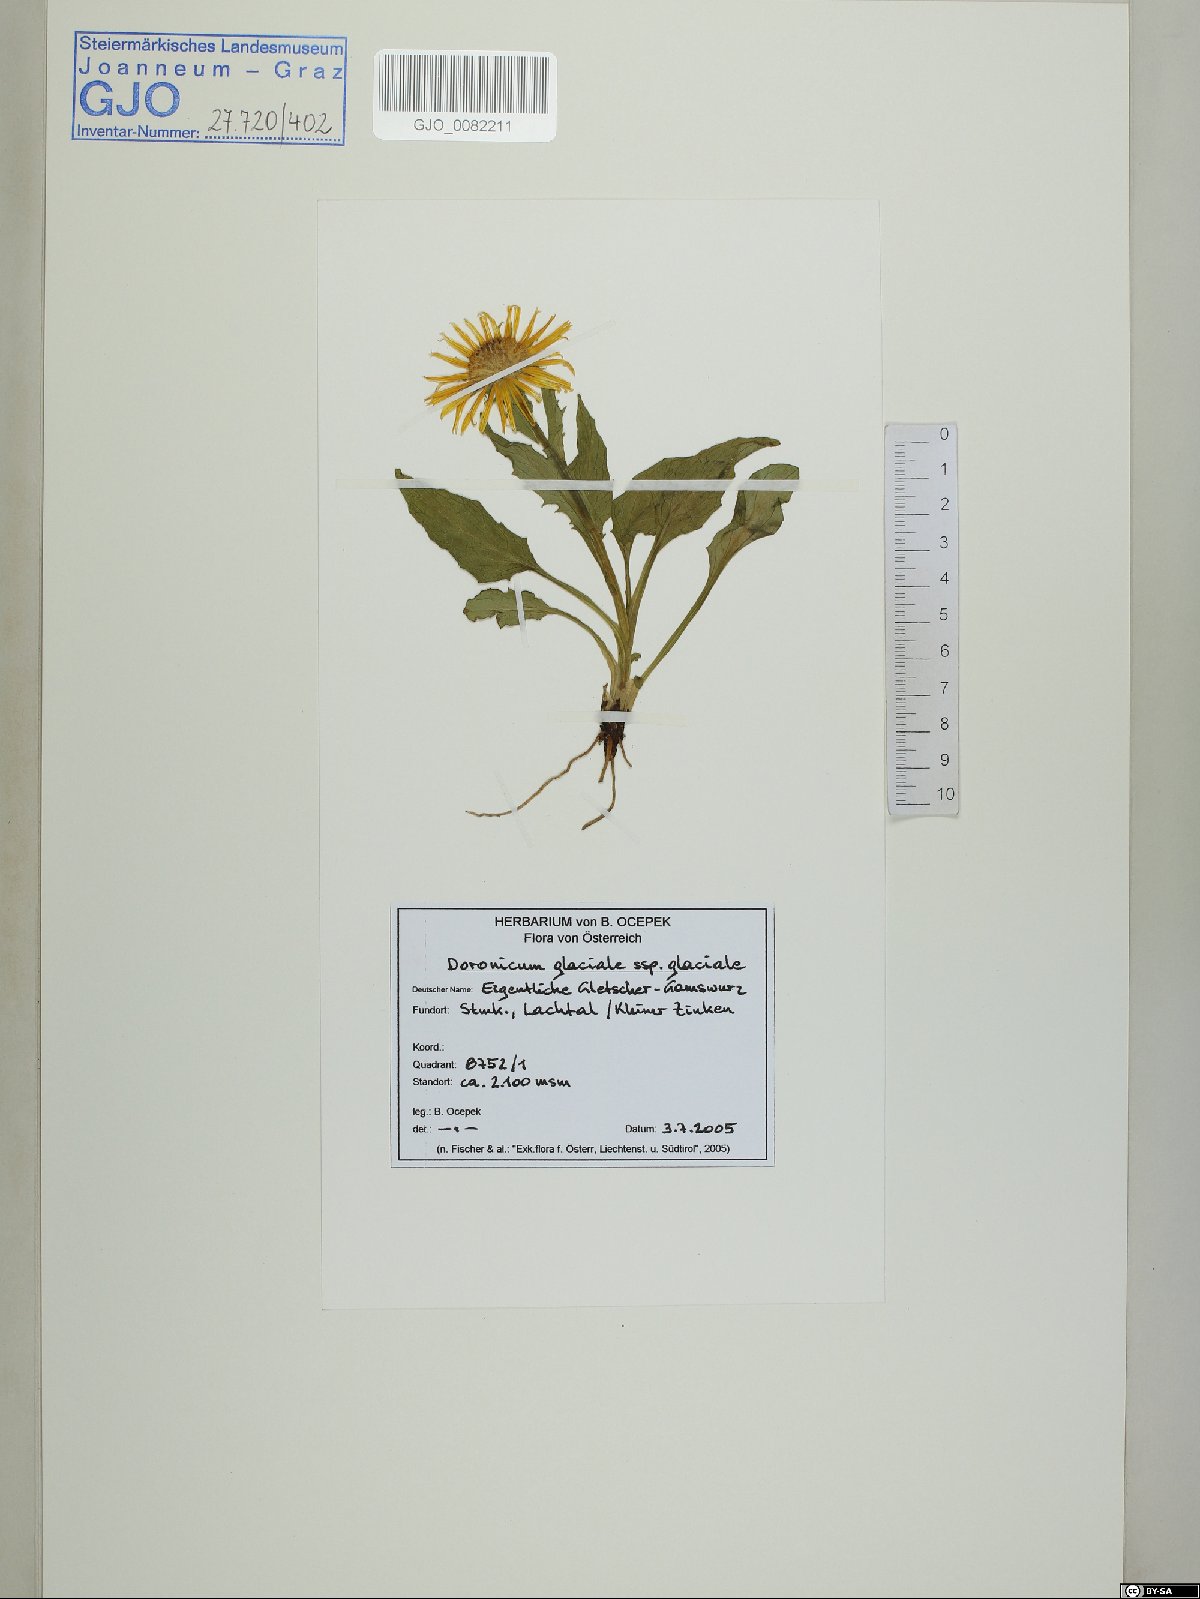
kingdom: Plantae
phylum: Tracheophyta
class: Magnoliopsida
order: Asterales
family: Asteraceae
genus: Doronicum
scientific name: Doronicum glaciale
